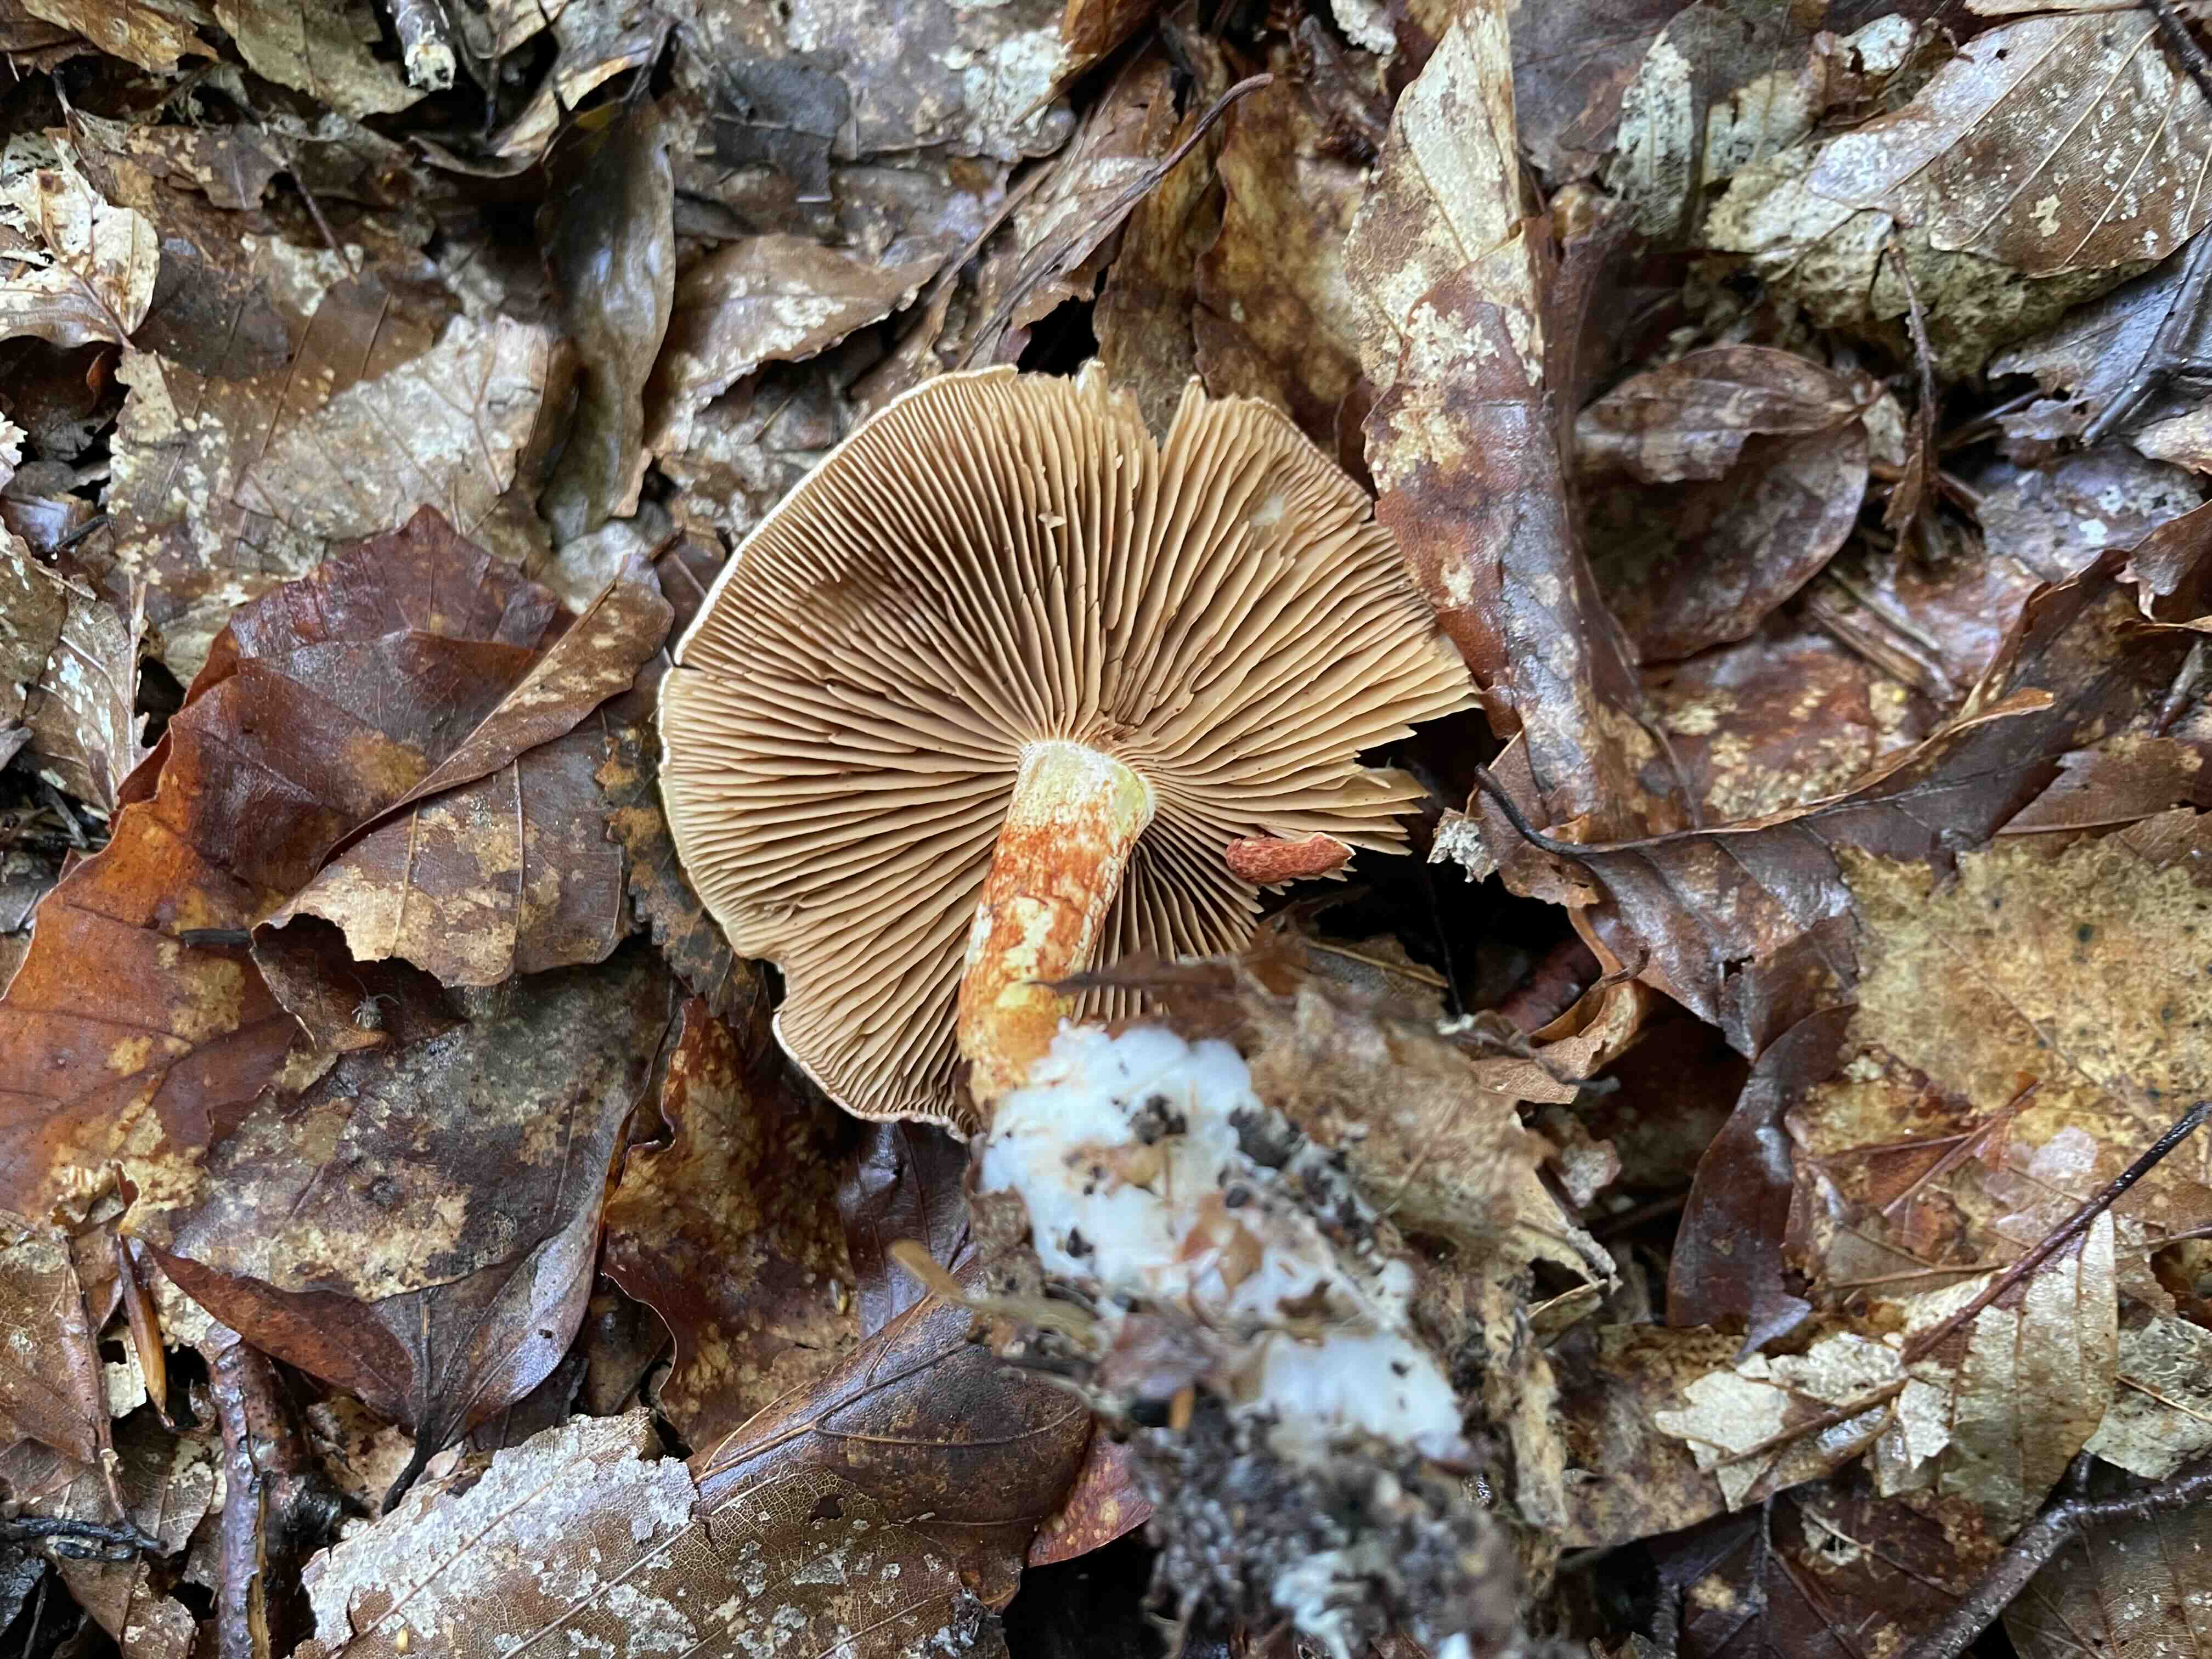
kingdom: Fungi
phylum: Basidiomycota
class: Agaricomycetes
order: Agaricales
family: Cortinariaceae
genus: Cortinarius
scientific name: Cortinarius bolaris
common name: cinnoberskællet slørhat
